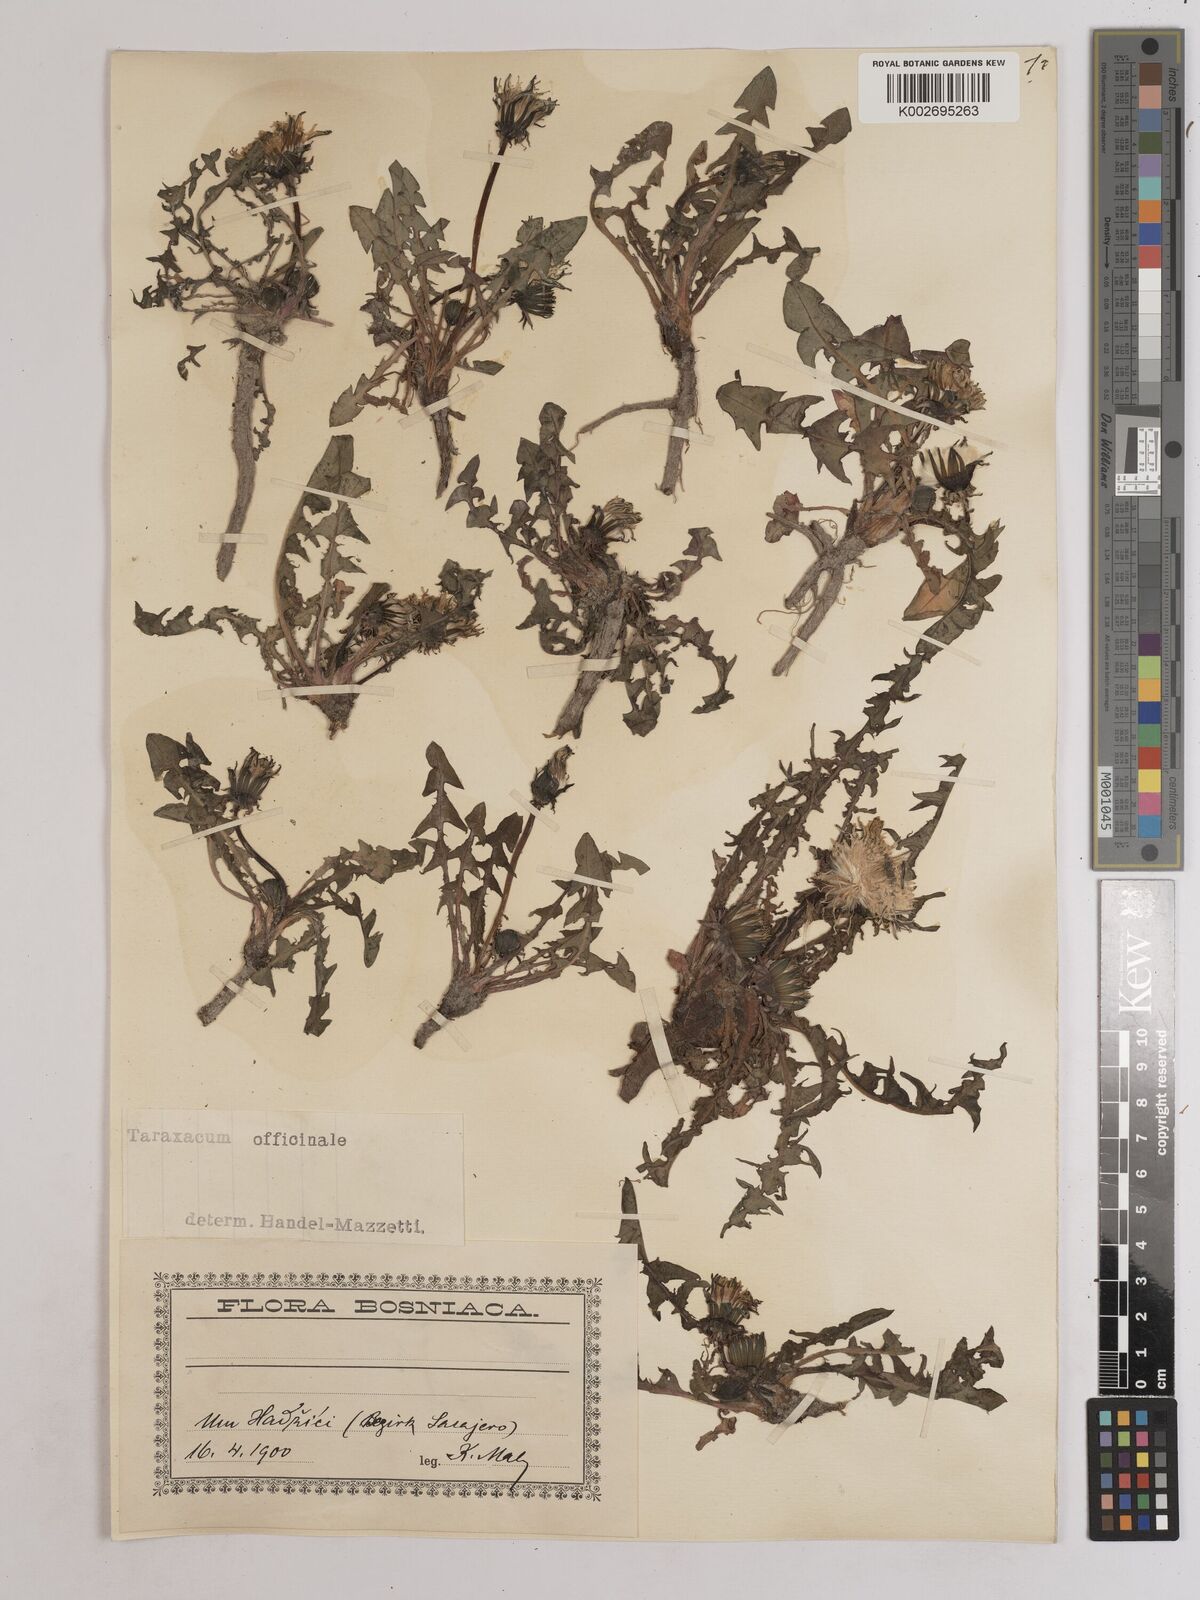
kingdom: Plantae
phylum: Tracheophyta
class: Magnoliopsida
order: Asterales
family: Asteraceae
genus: Taraxacum
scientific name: Taraxacum officinale
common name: Common dandelion
